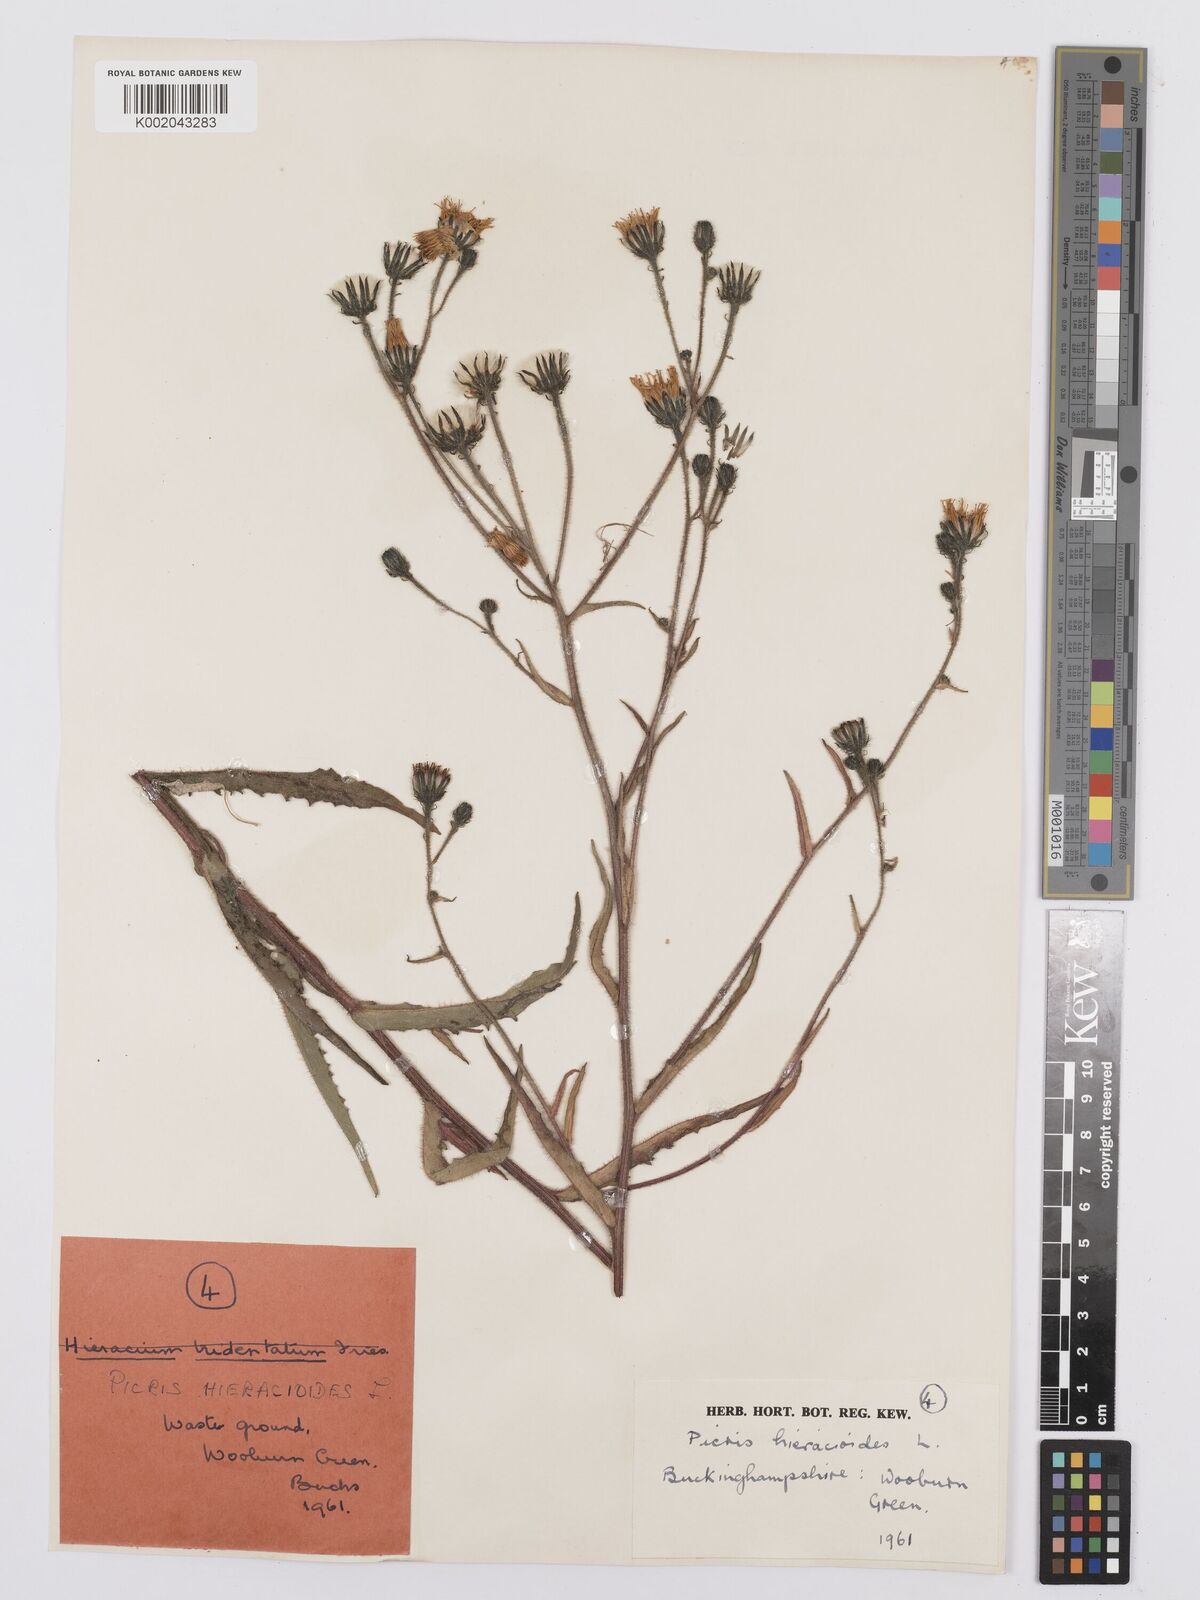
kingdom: Plantae
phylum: Tracheophyta
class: Magnoliopsida
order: Asterales
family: Asteraceae
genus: Picris
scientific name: Picris hieracioides
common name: Hawkweed oxtongue
